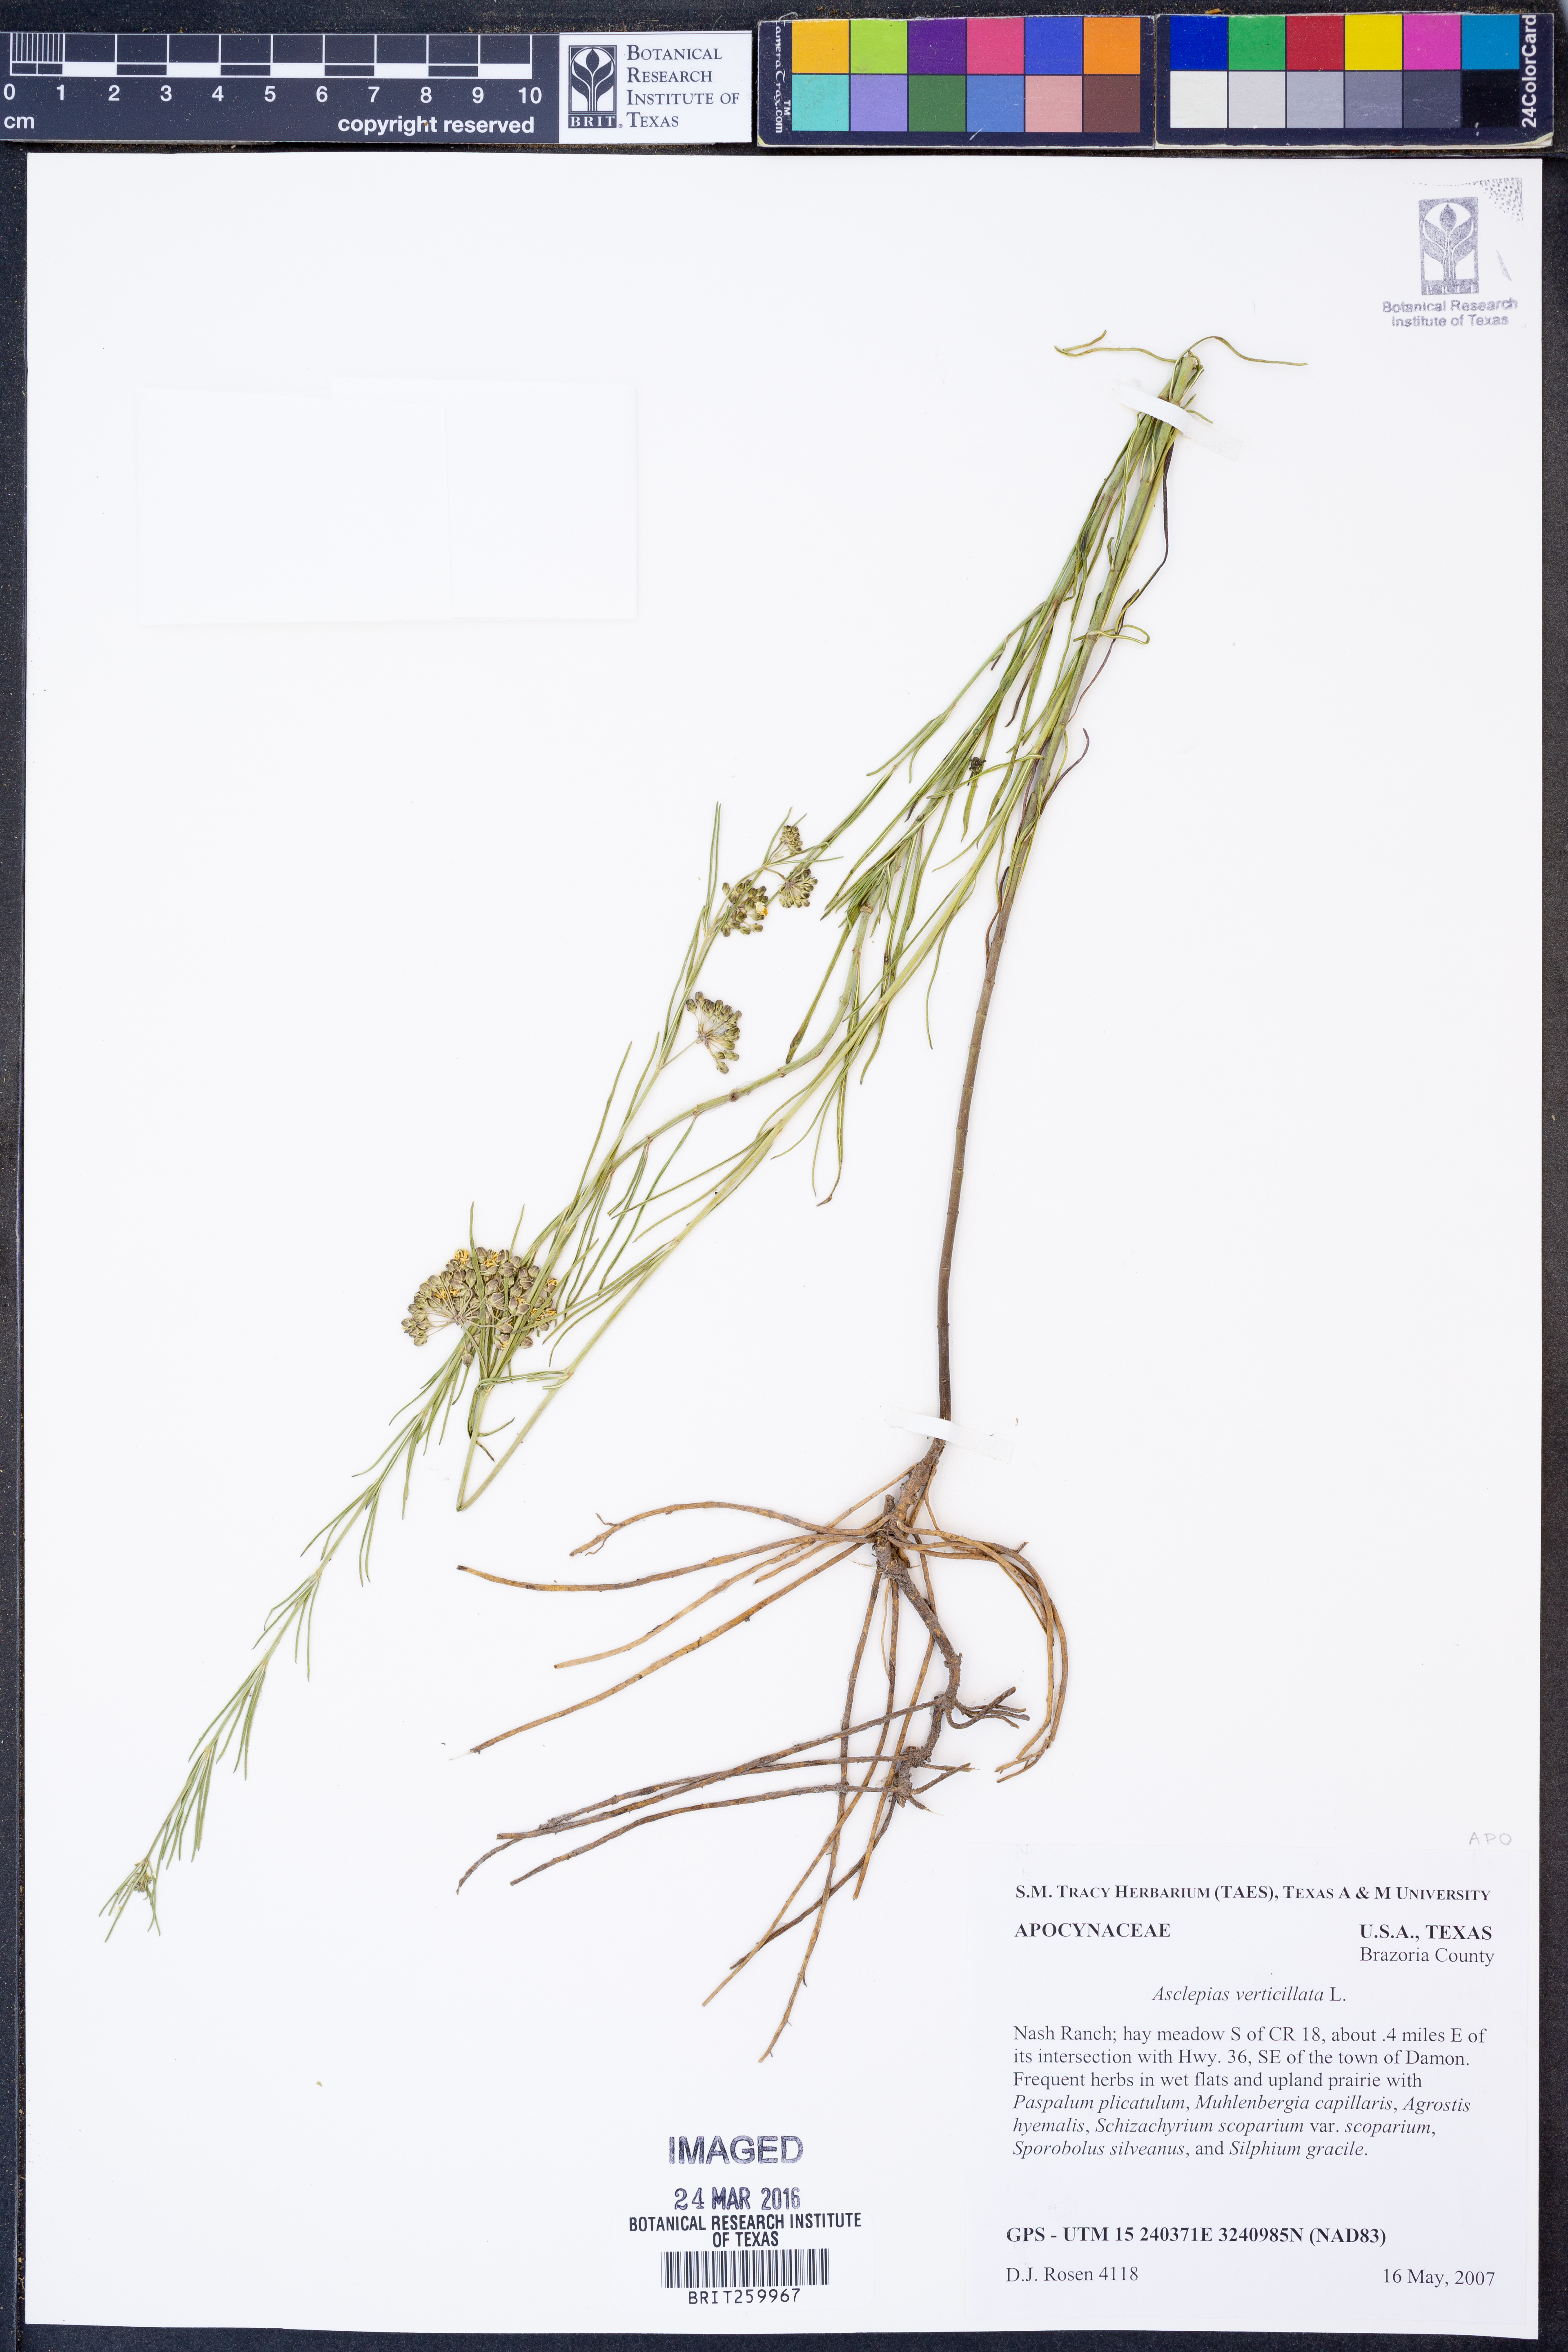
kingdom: Plantae
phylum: Tracheophyta
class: Magnoliopsida
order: Gentianales
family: Apocynaceae
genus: Asclepias
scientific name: Asclepias verticillata
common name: Eastern whorled milkweed
